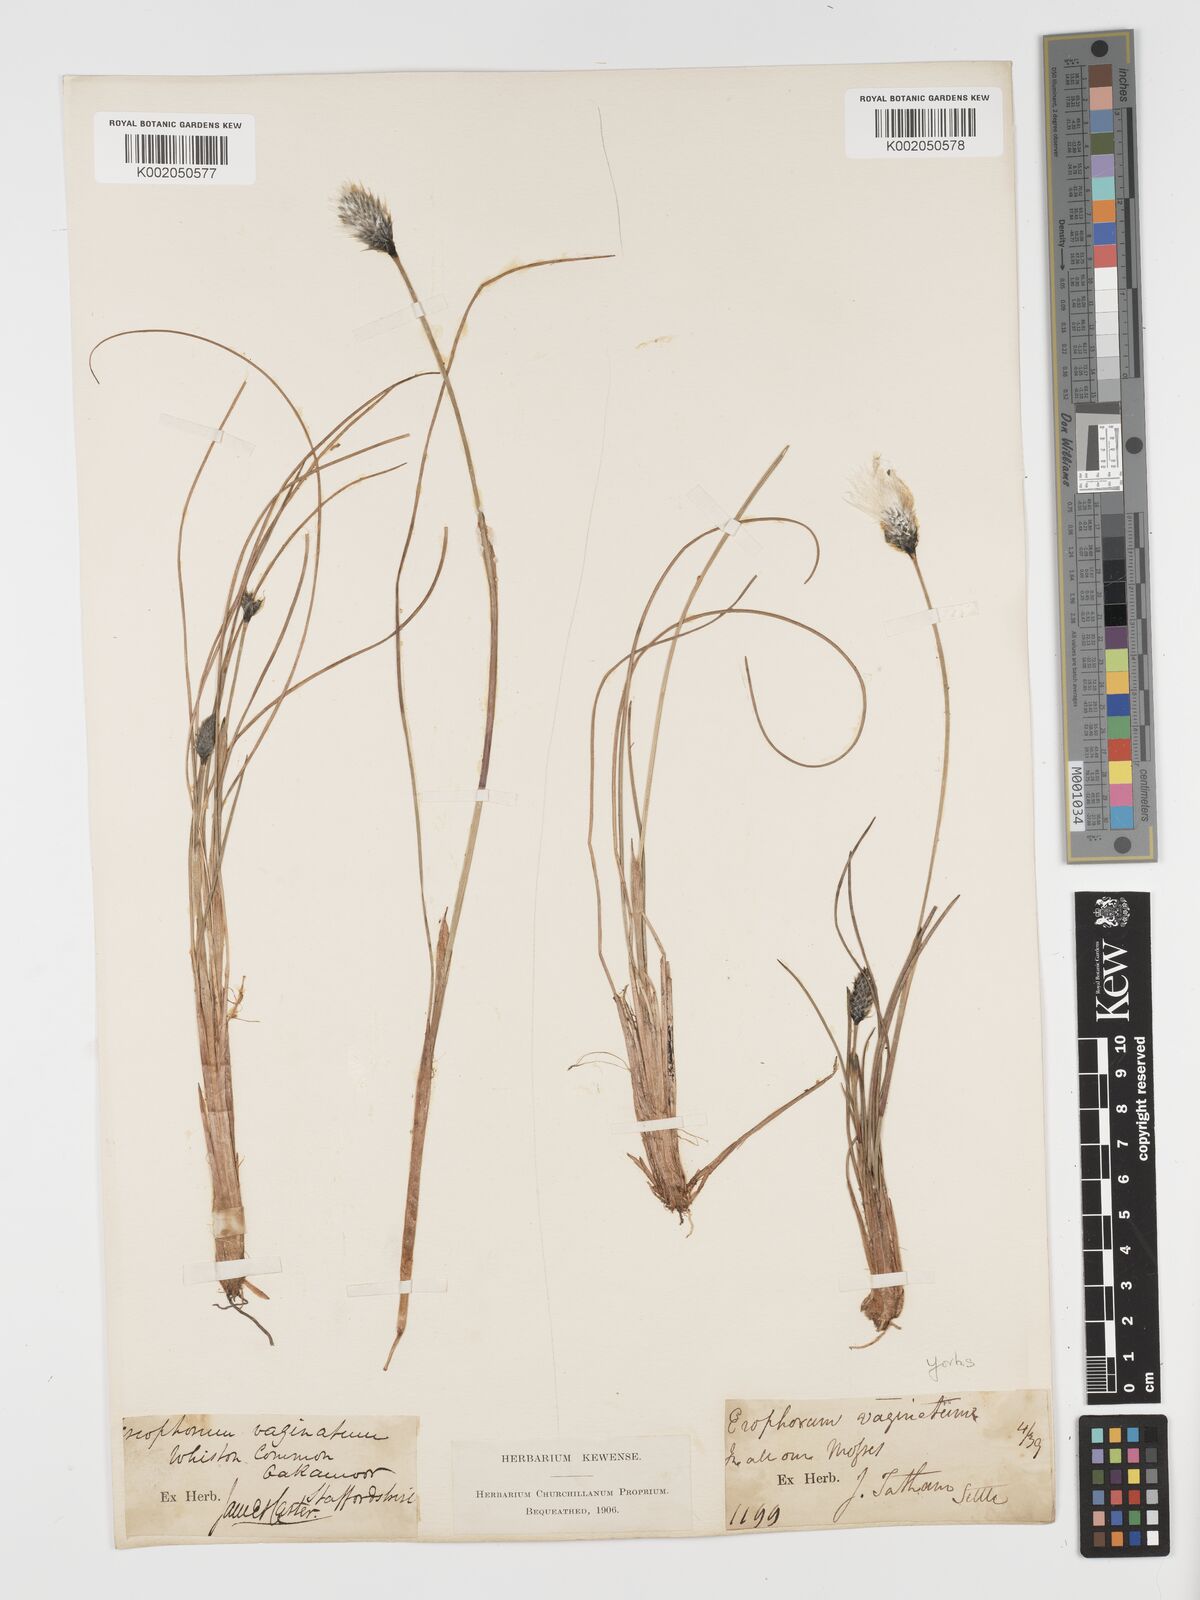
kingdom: Plantae
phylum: Tracheophyta
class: Liliopsida
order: Poales
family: Cyperaceae
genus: Eriophorum
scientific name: Eriophorum vaginatum
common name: Hare's-tail cottongrass
